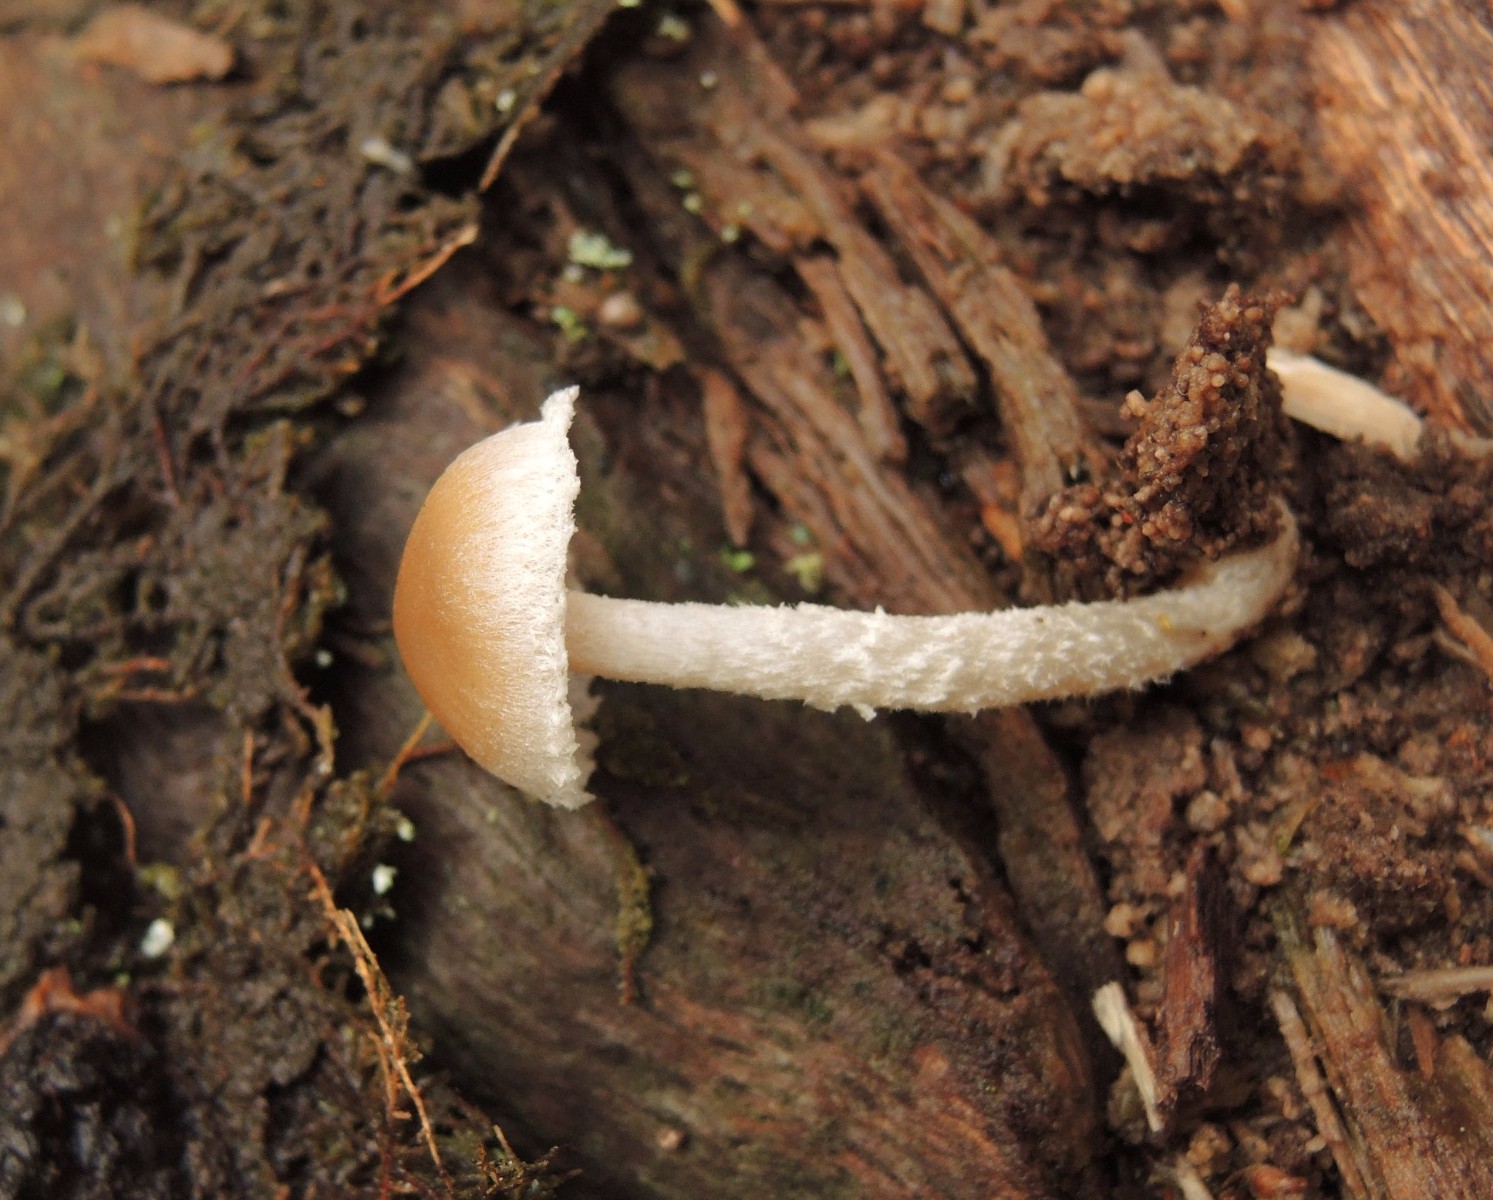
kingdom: Fungi
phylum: Basidiomycota
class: Agaricomycetes
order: Agaricales
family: Psathyrellaceae
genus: Psathyrella
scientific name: Psathyrella
